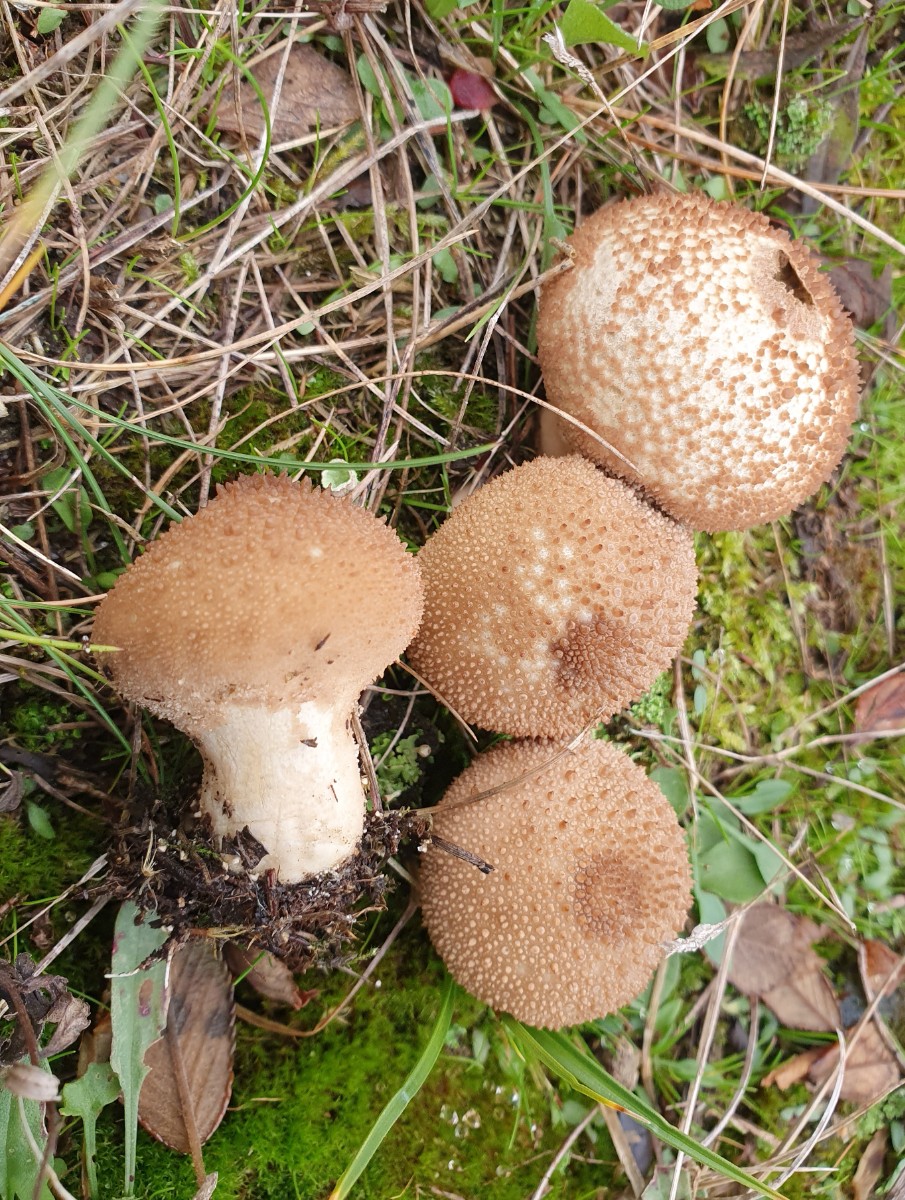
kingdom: Fungi
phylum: Basidiomycota
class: Agaricomycetes
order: Agaricales
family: Lycoperdaceae
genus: Lycoperdon
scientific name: Lycoperdon perlatum
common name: krystal-støvbold
